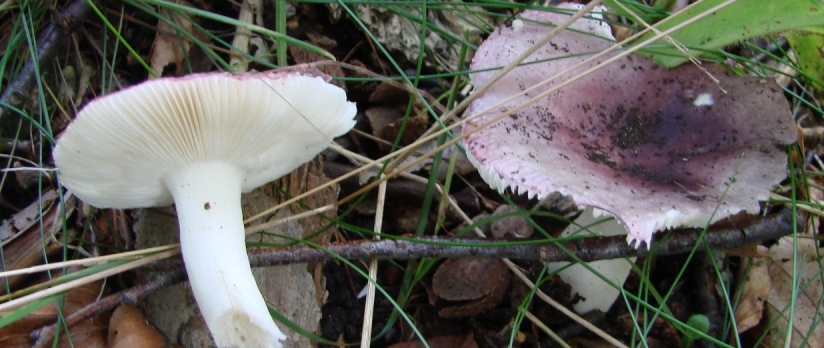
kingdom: Fungi
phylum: Basidiomycota
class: Agaricomycetes
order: Russulales
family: Russulaceae
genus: Russula
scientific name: Russula atropurpurea
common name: purpurbroget skørhat
